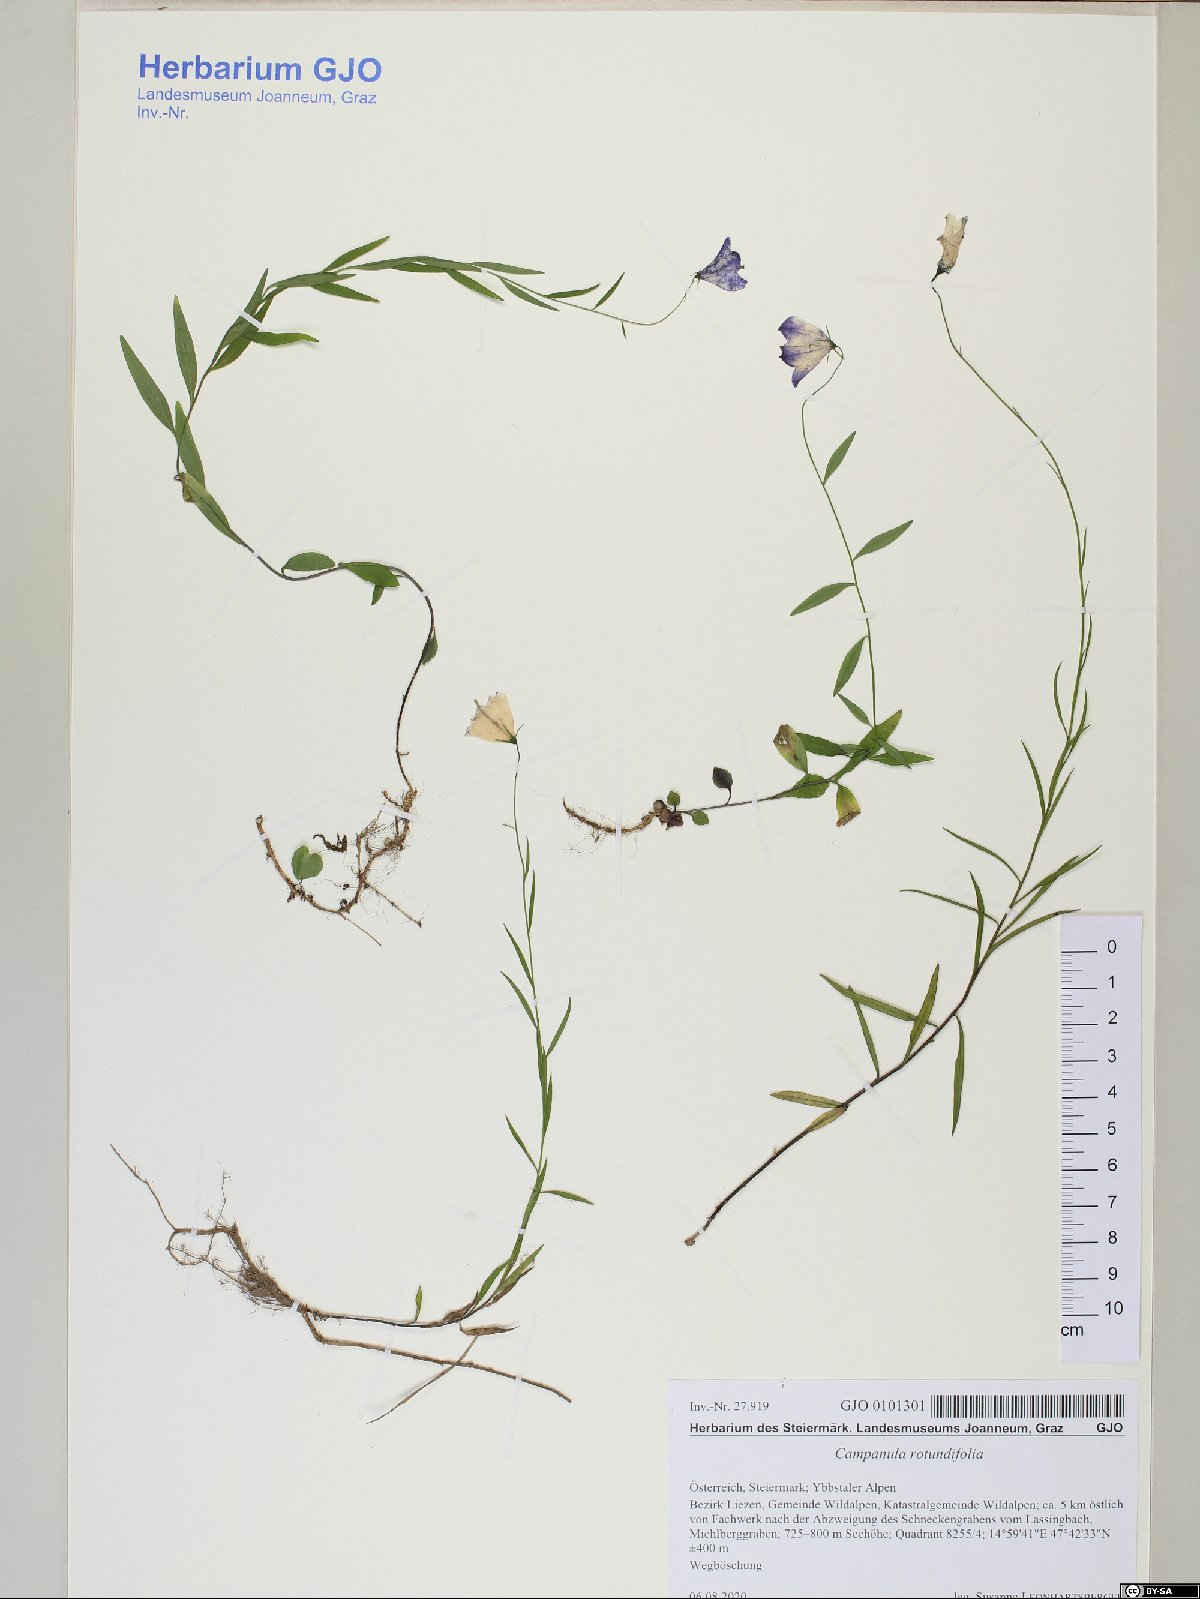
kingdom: Plantae
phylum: Tracheophyta
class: Magnoliopsida
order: Asterales
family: Campanulaceae
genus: Campanula
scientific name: Campanula rotundifolia
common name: Harebell
